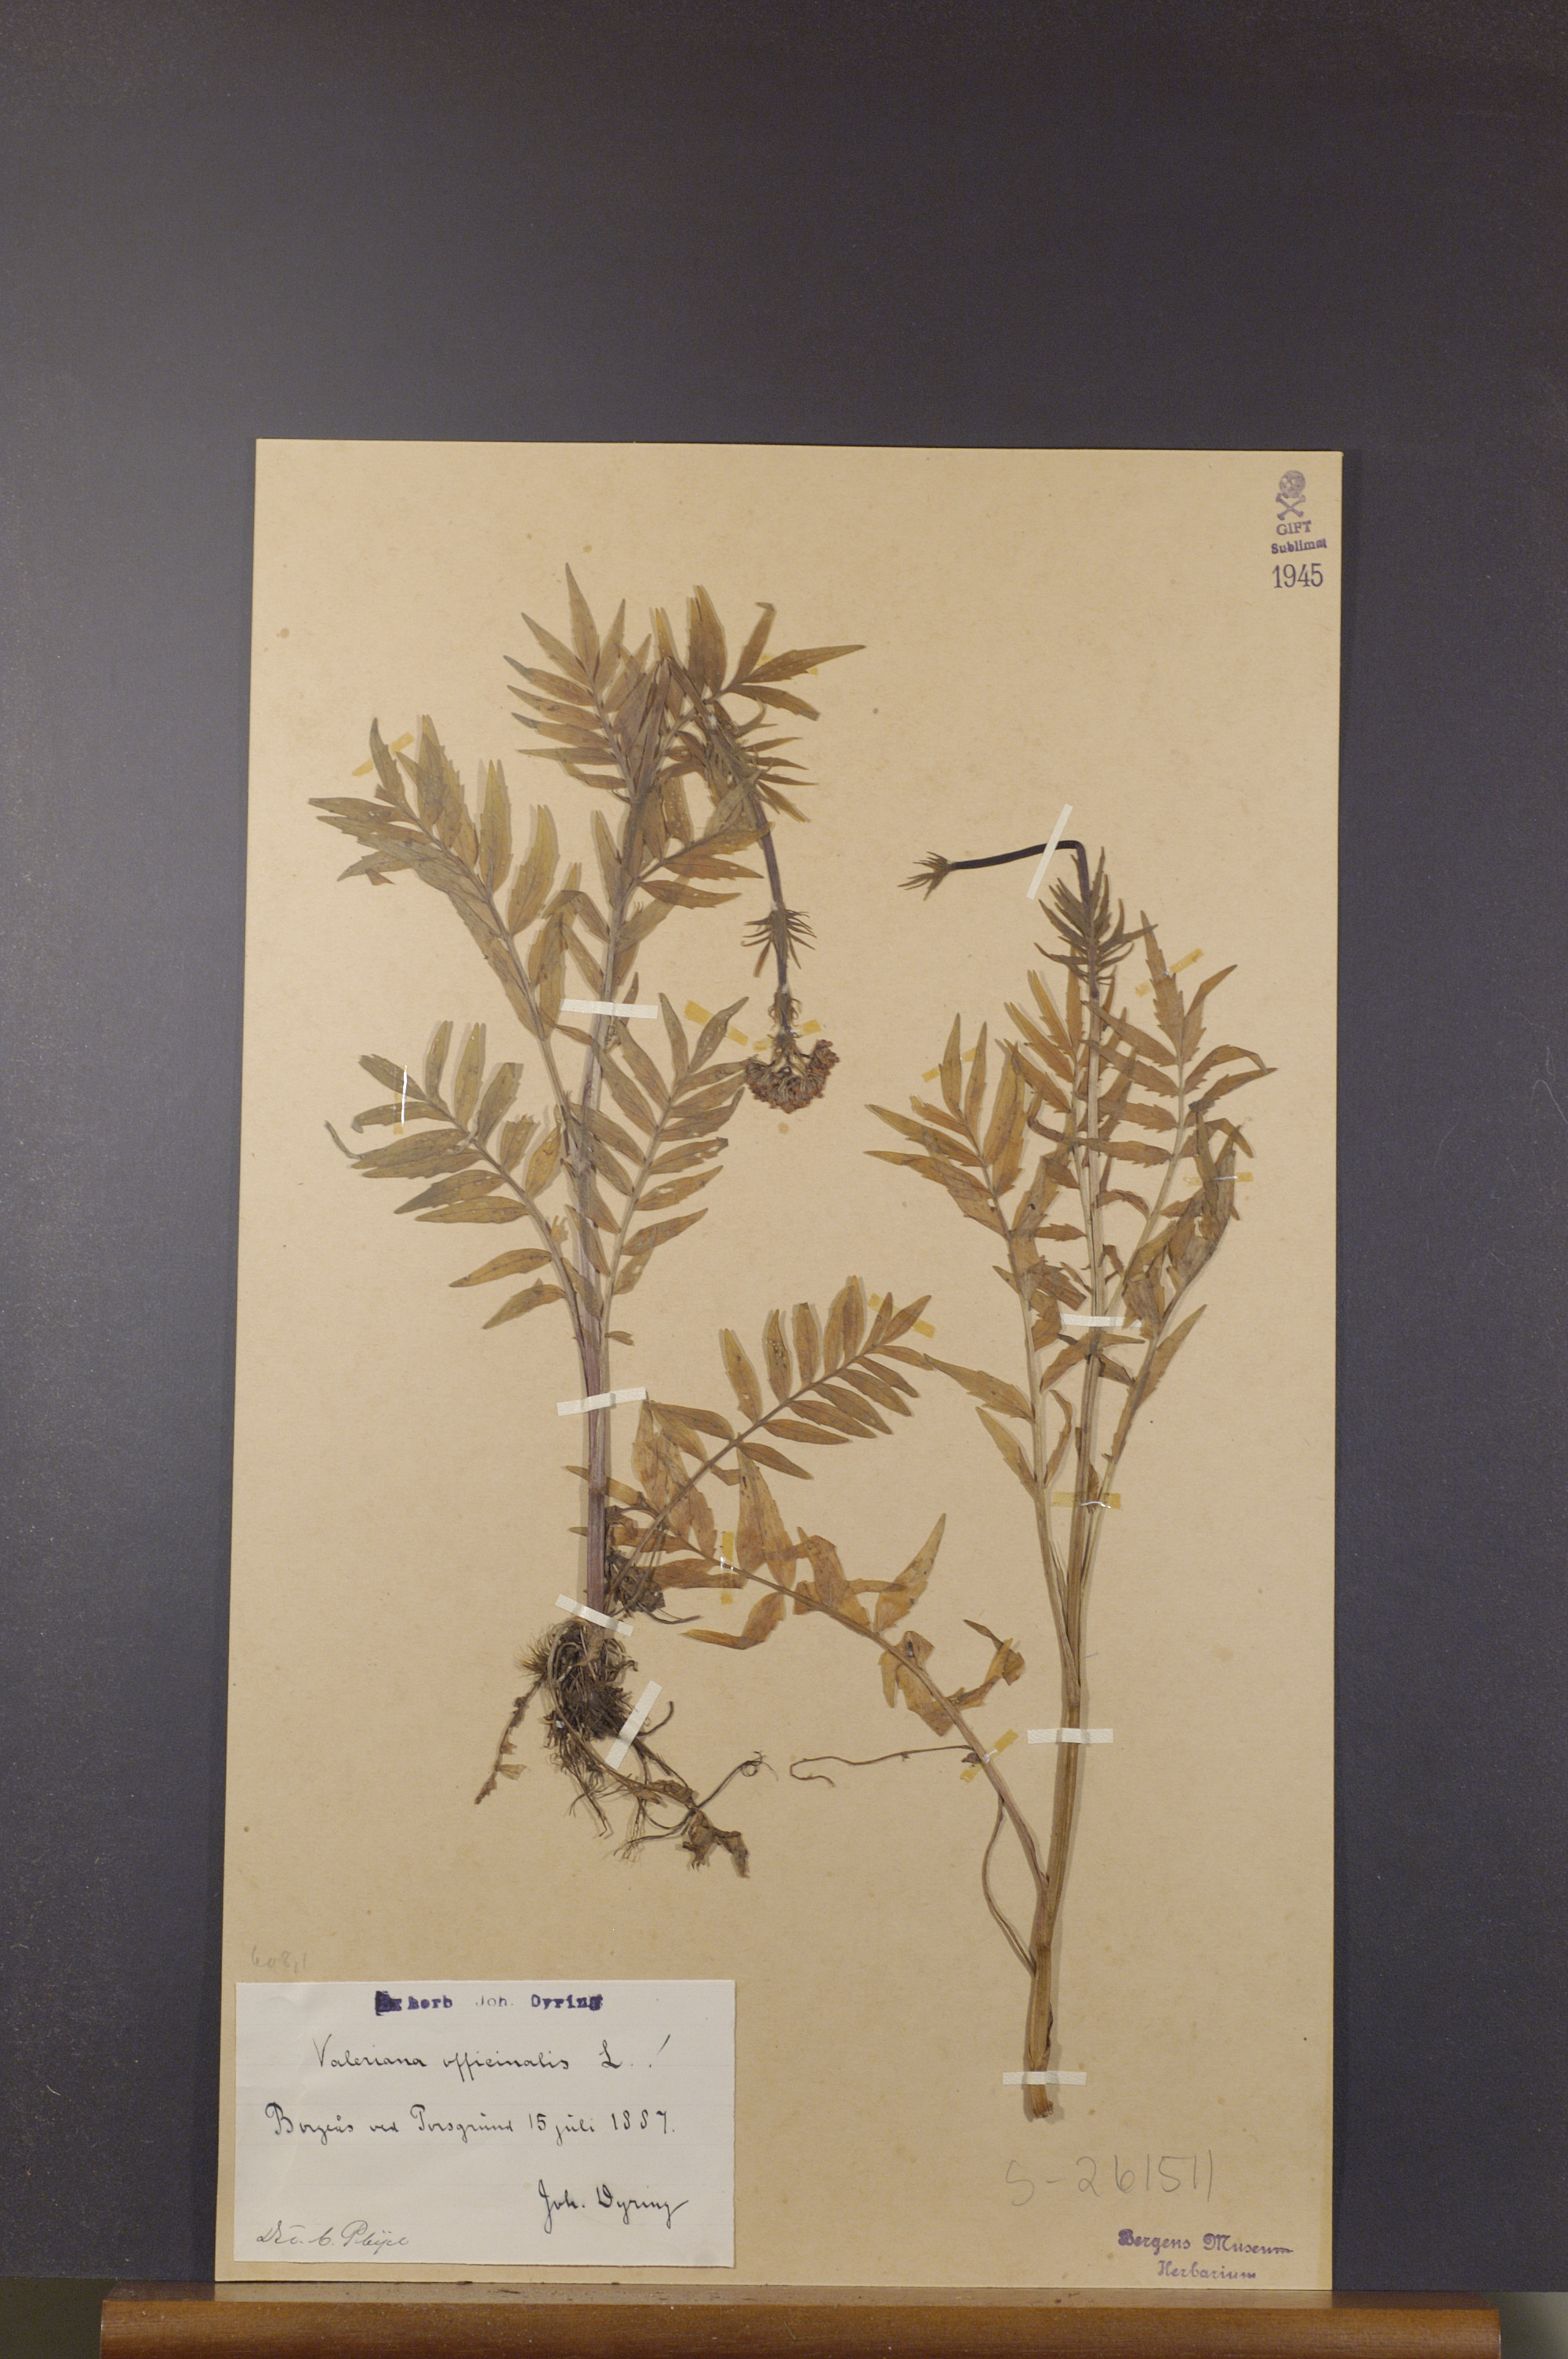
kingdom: Plantae
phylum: Tracheophyta
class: Magnoliopsida
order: Dipsacales
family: Caprifoliaceae
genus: Valeriana
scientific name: Valeriana officinalis
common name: Common valerian
